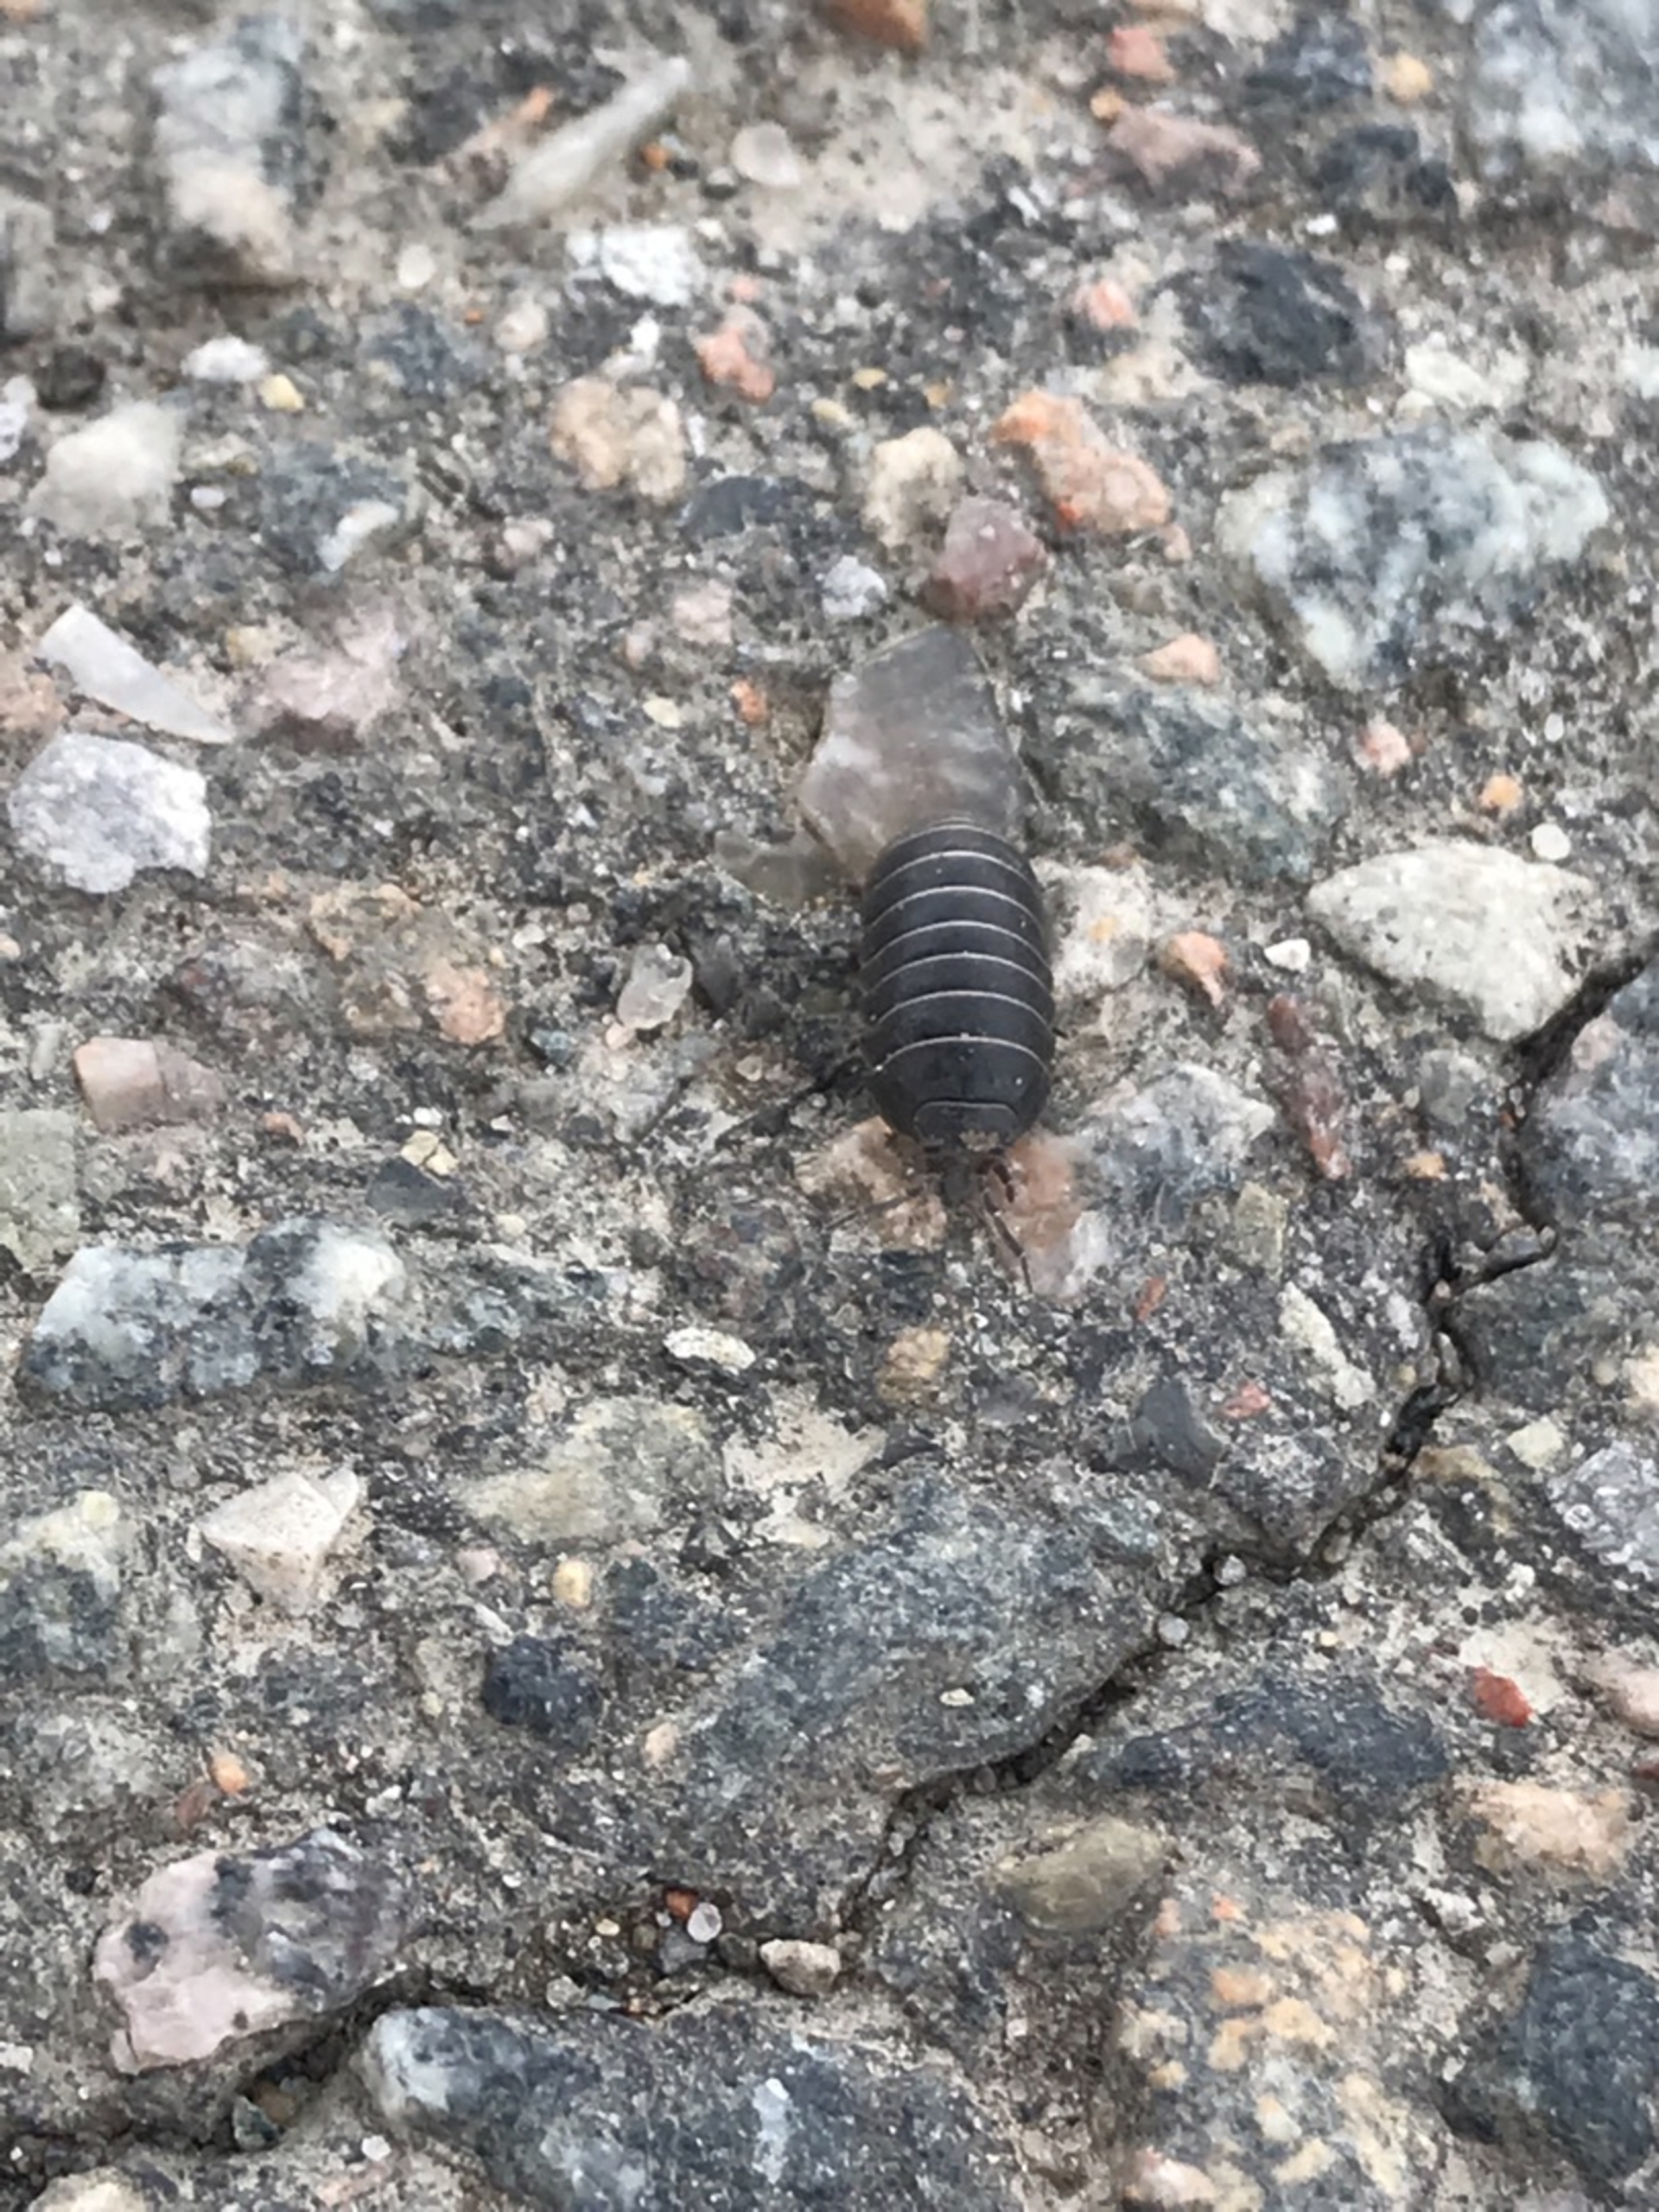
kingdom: Animalia
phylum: Arthropoda
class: Malacostraca
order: Isopoda
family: Armadillidiidae
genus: Armadillidium
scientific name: Armadillidium vulgare
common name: Almindelig kuglebænkebider
